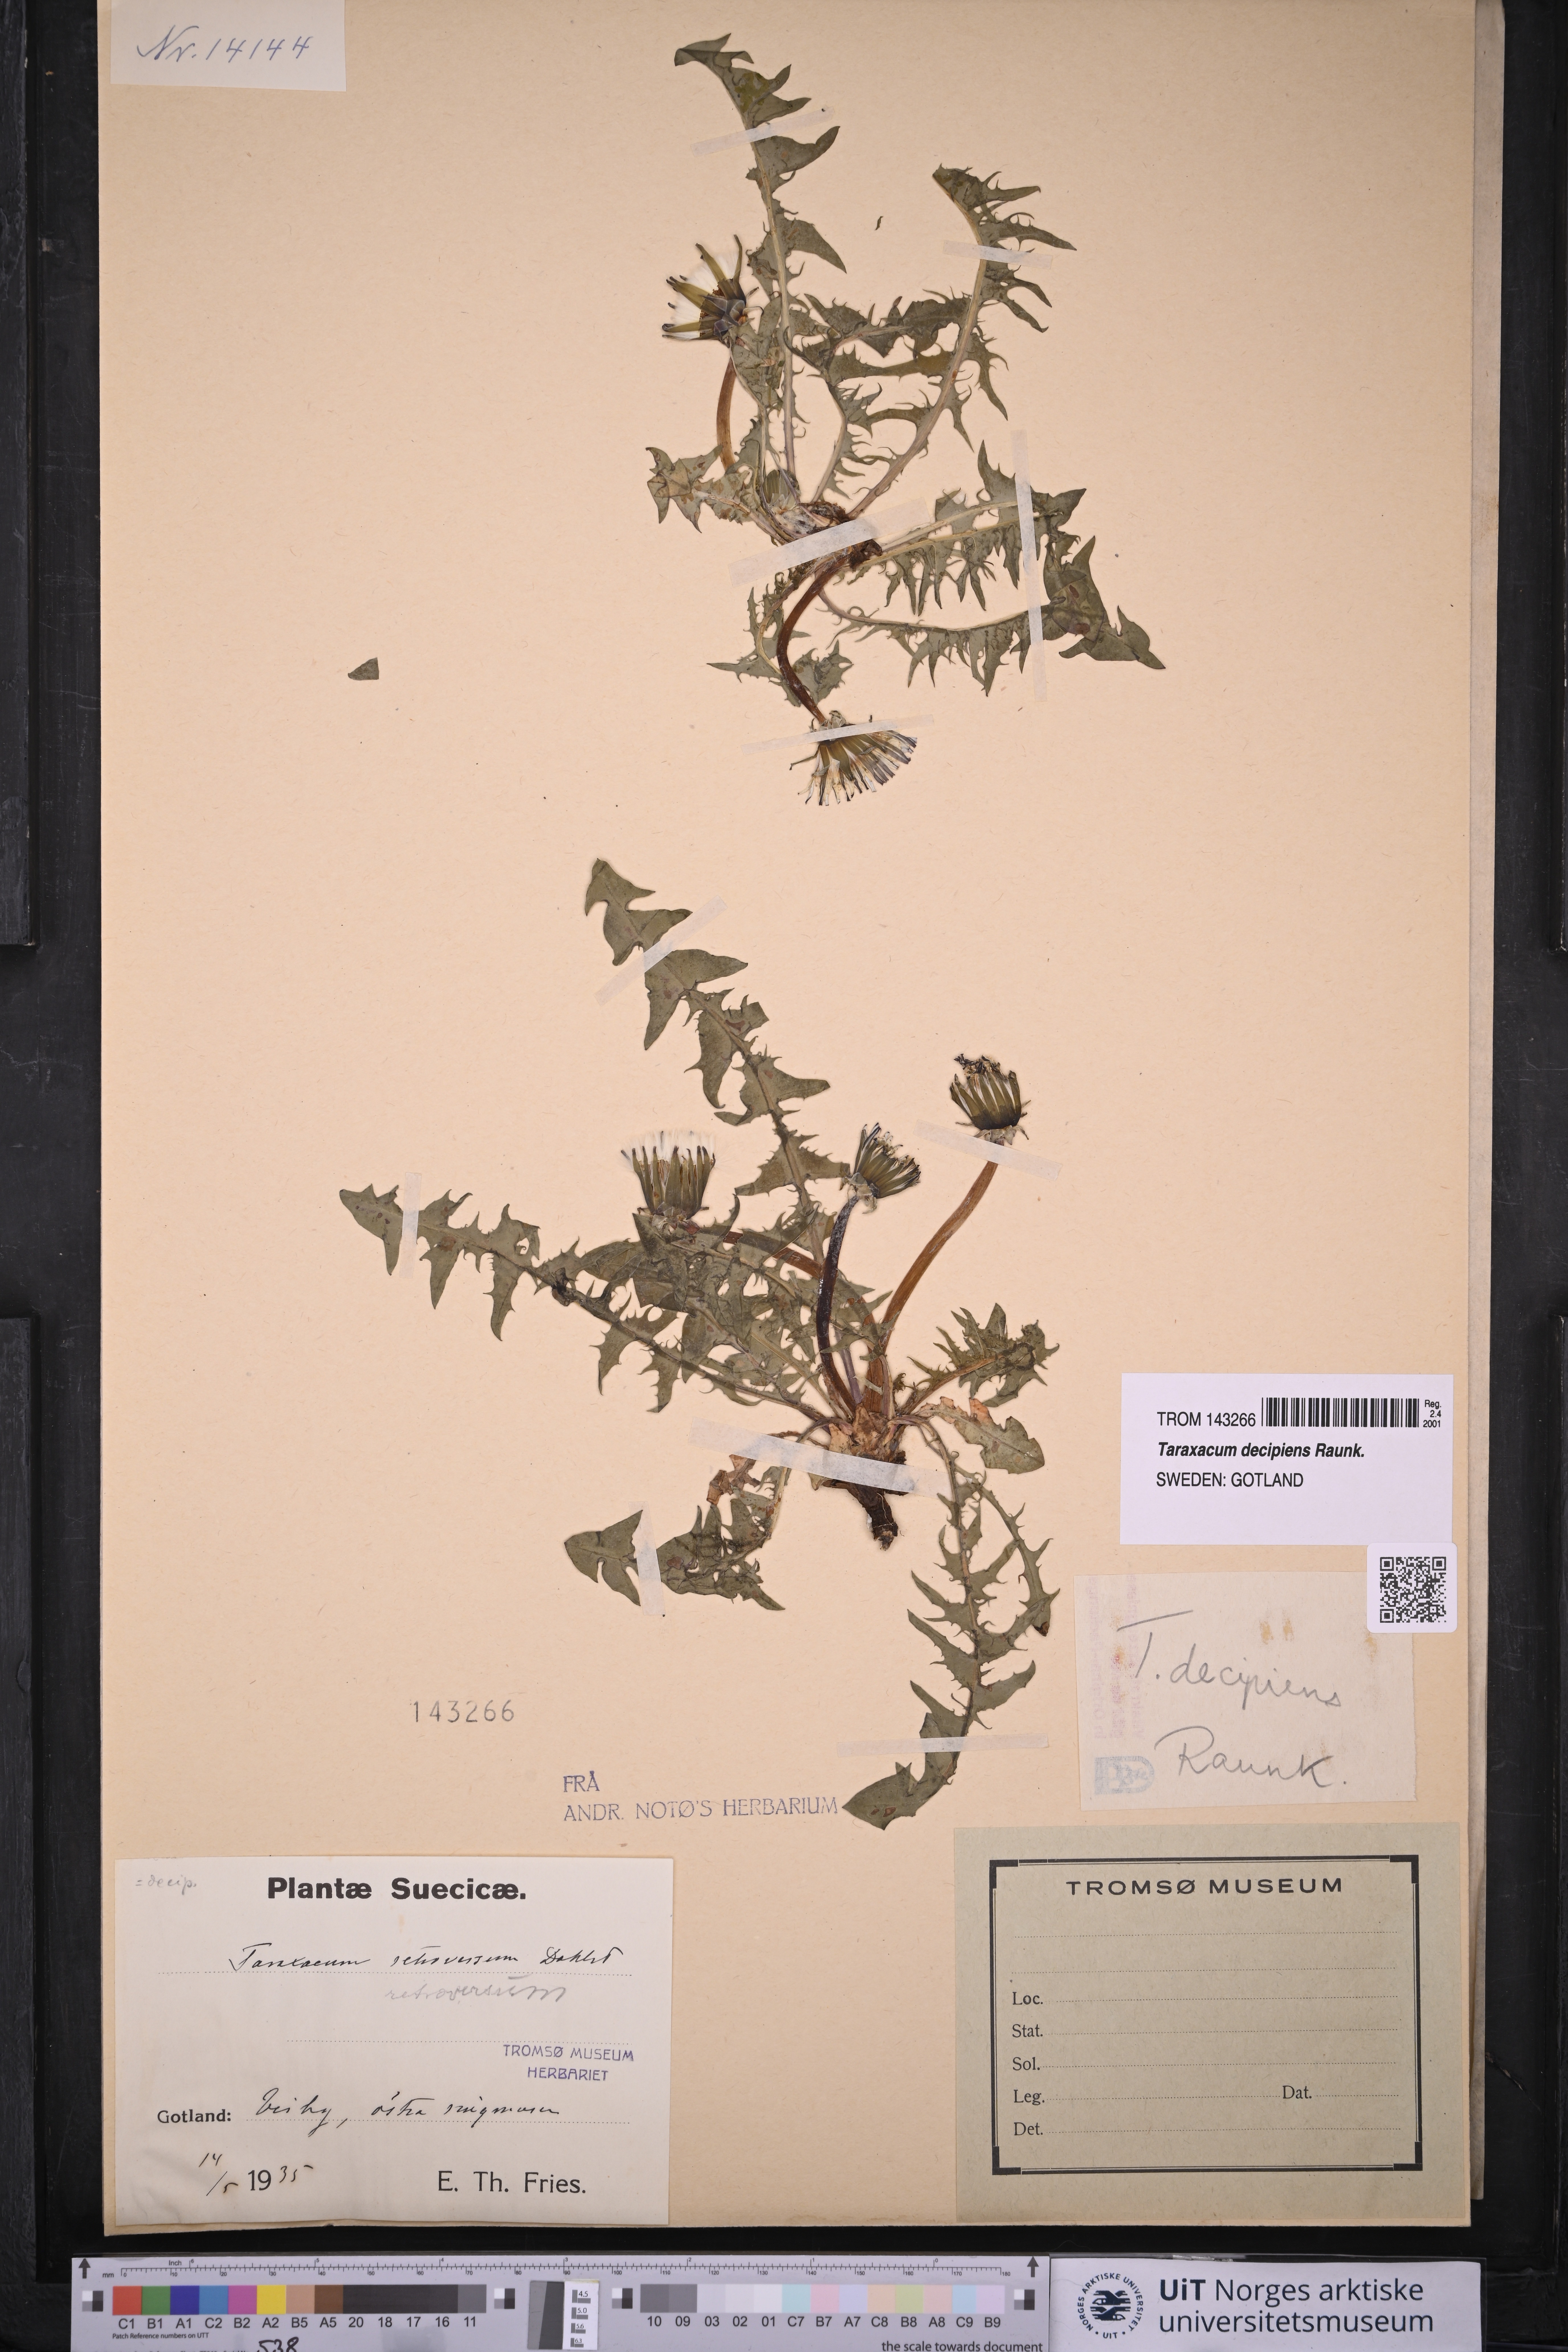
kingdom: Plantae
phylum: Tracheophyta
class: Magnoliopsida
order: Asterales
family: Asteraceae
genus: Taraxacum
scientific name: Taraxacum decipiens
